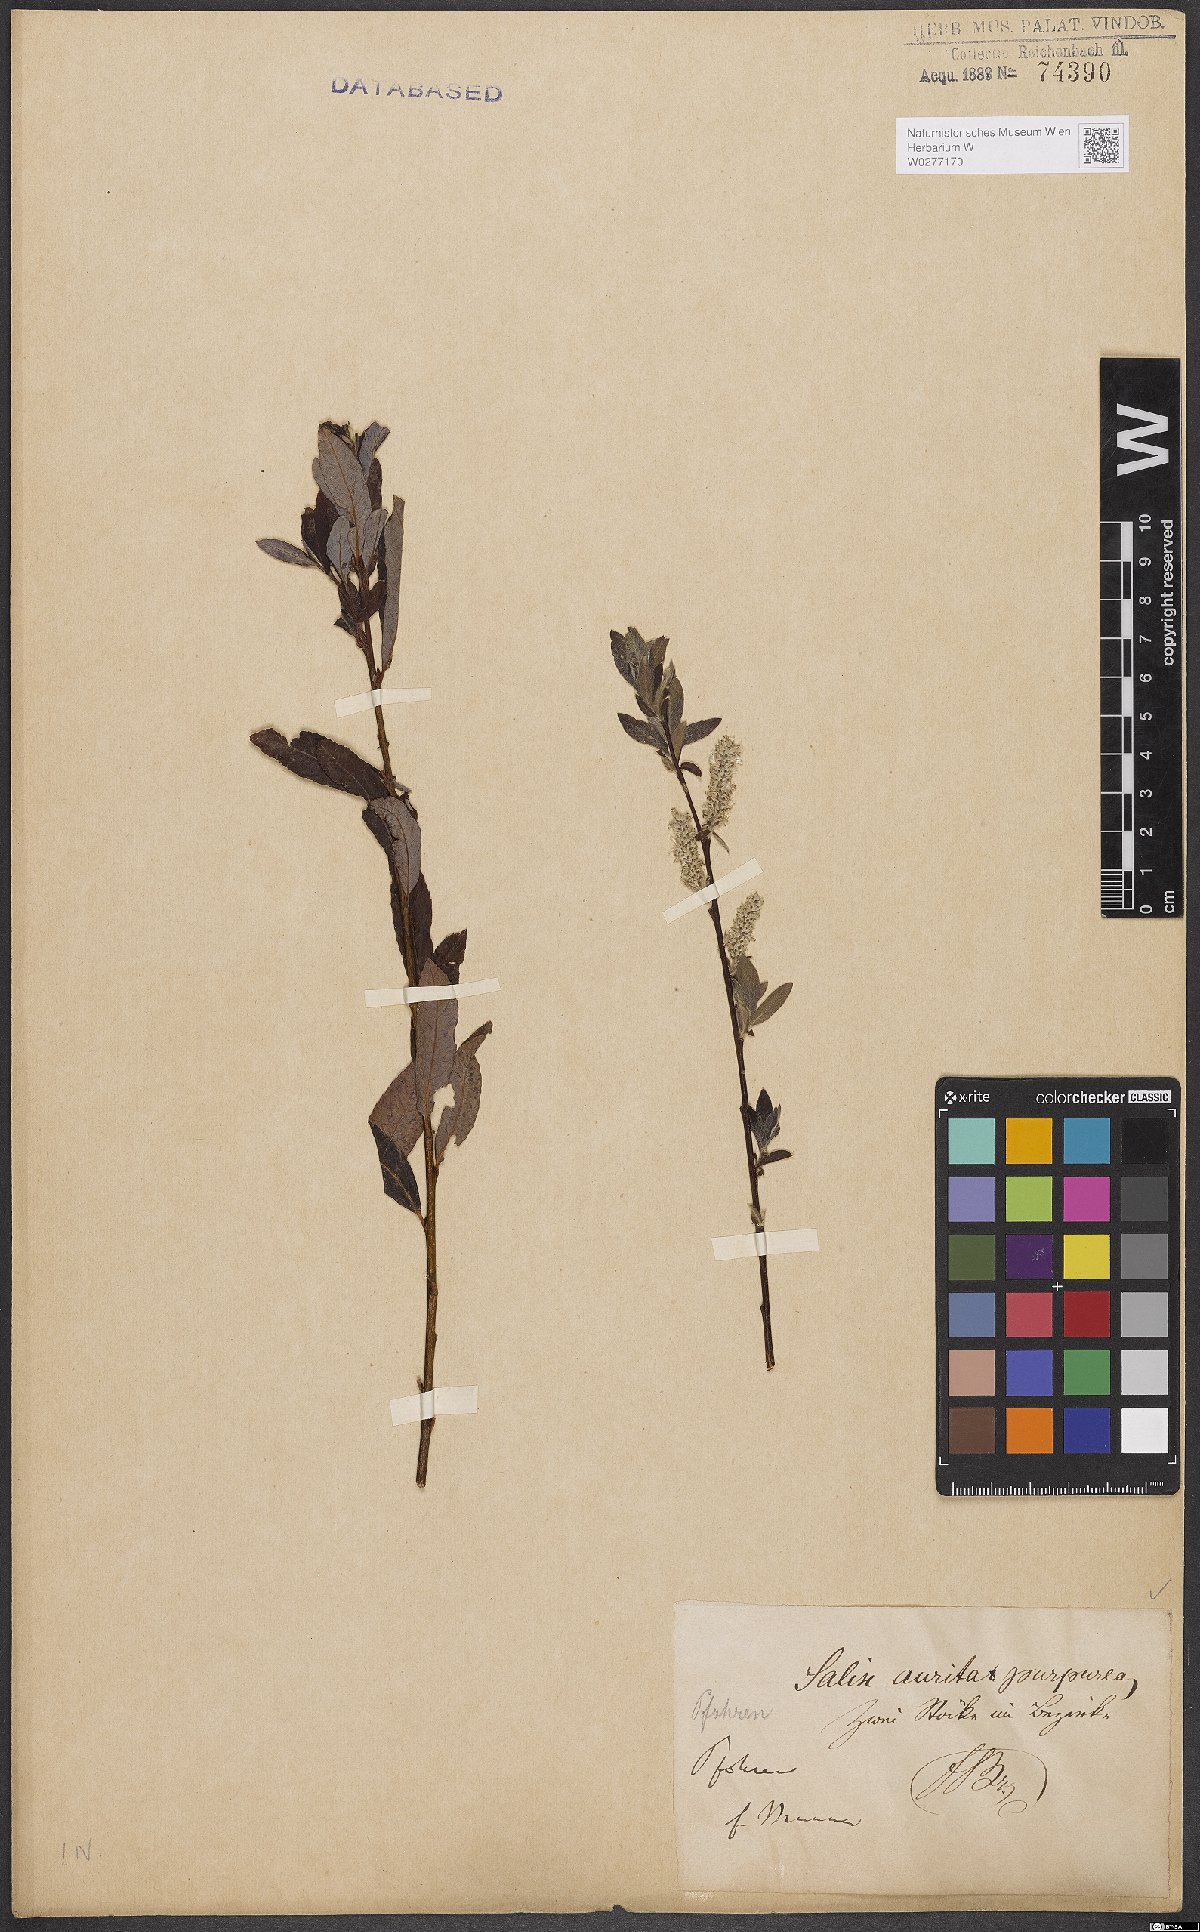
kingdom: Plantae
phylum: Tracheophyta
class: Magnoliopsida
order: Malpighiales
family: Salicaceae
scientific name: Salicaceae
